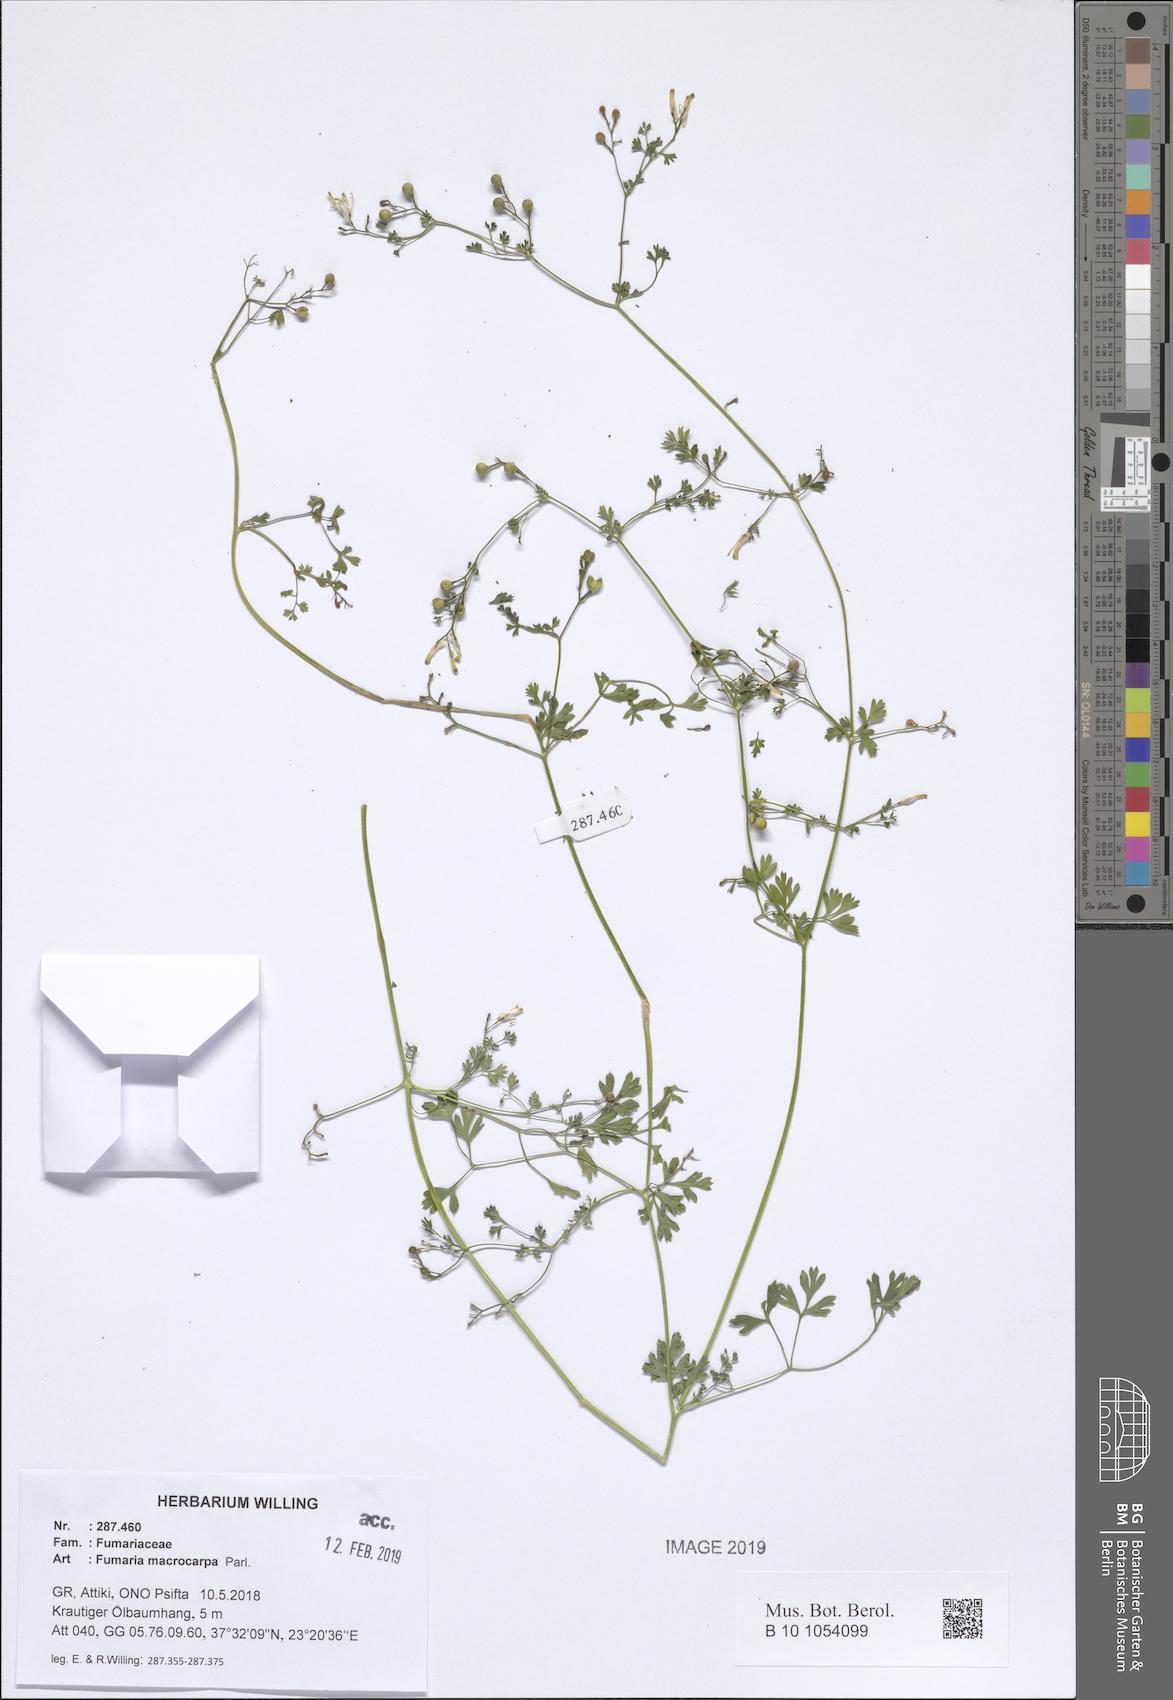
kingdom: Plantae
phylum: Tracheophyta
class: Magnoliopsida
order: Ranunculales
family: Papaveraceae
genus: Fumaria
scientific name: Fumaria macrocarpa
